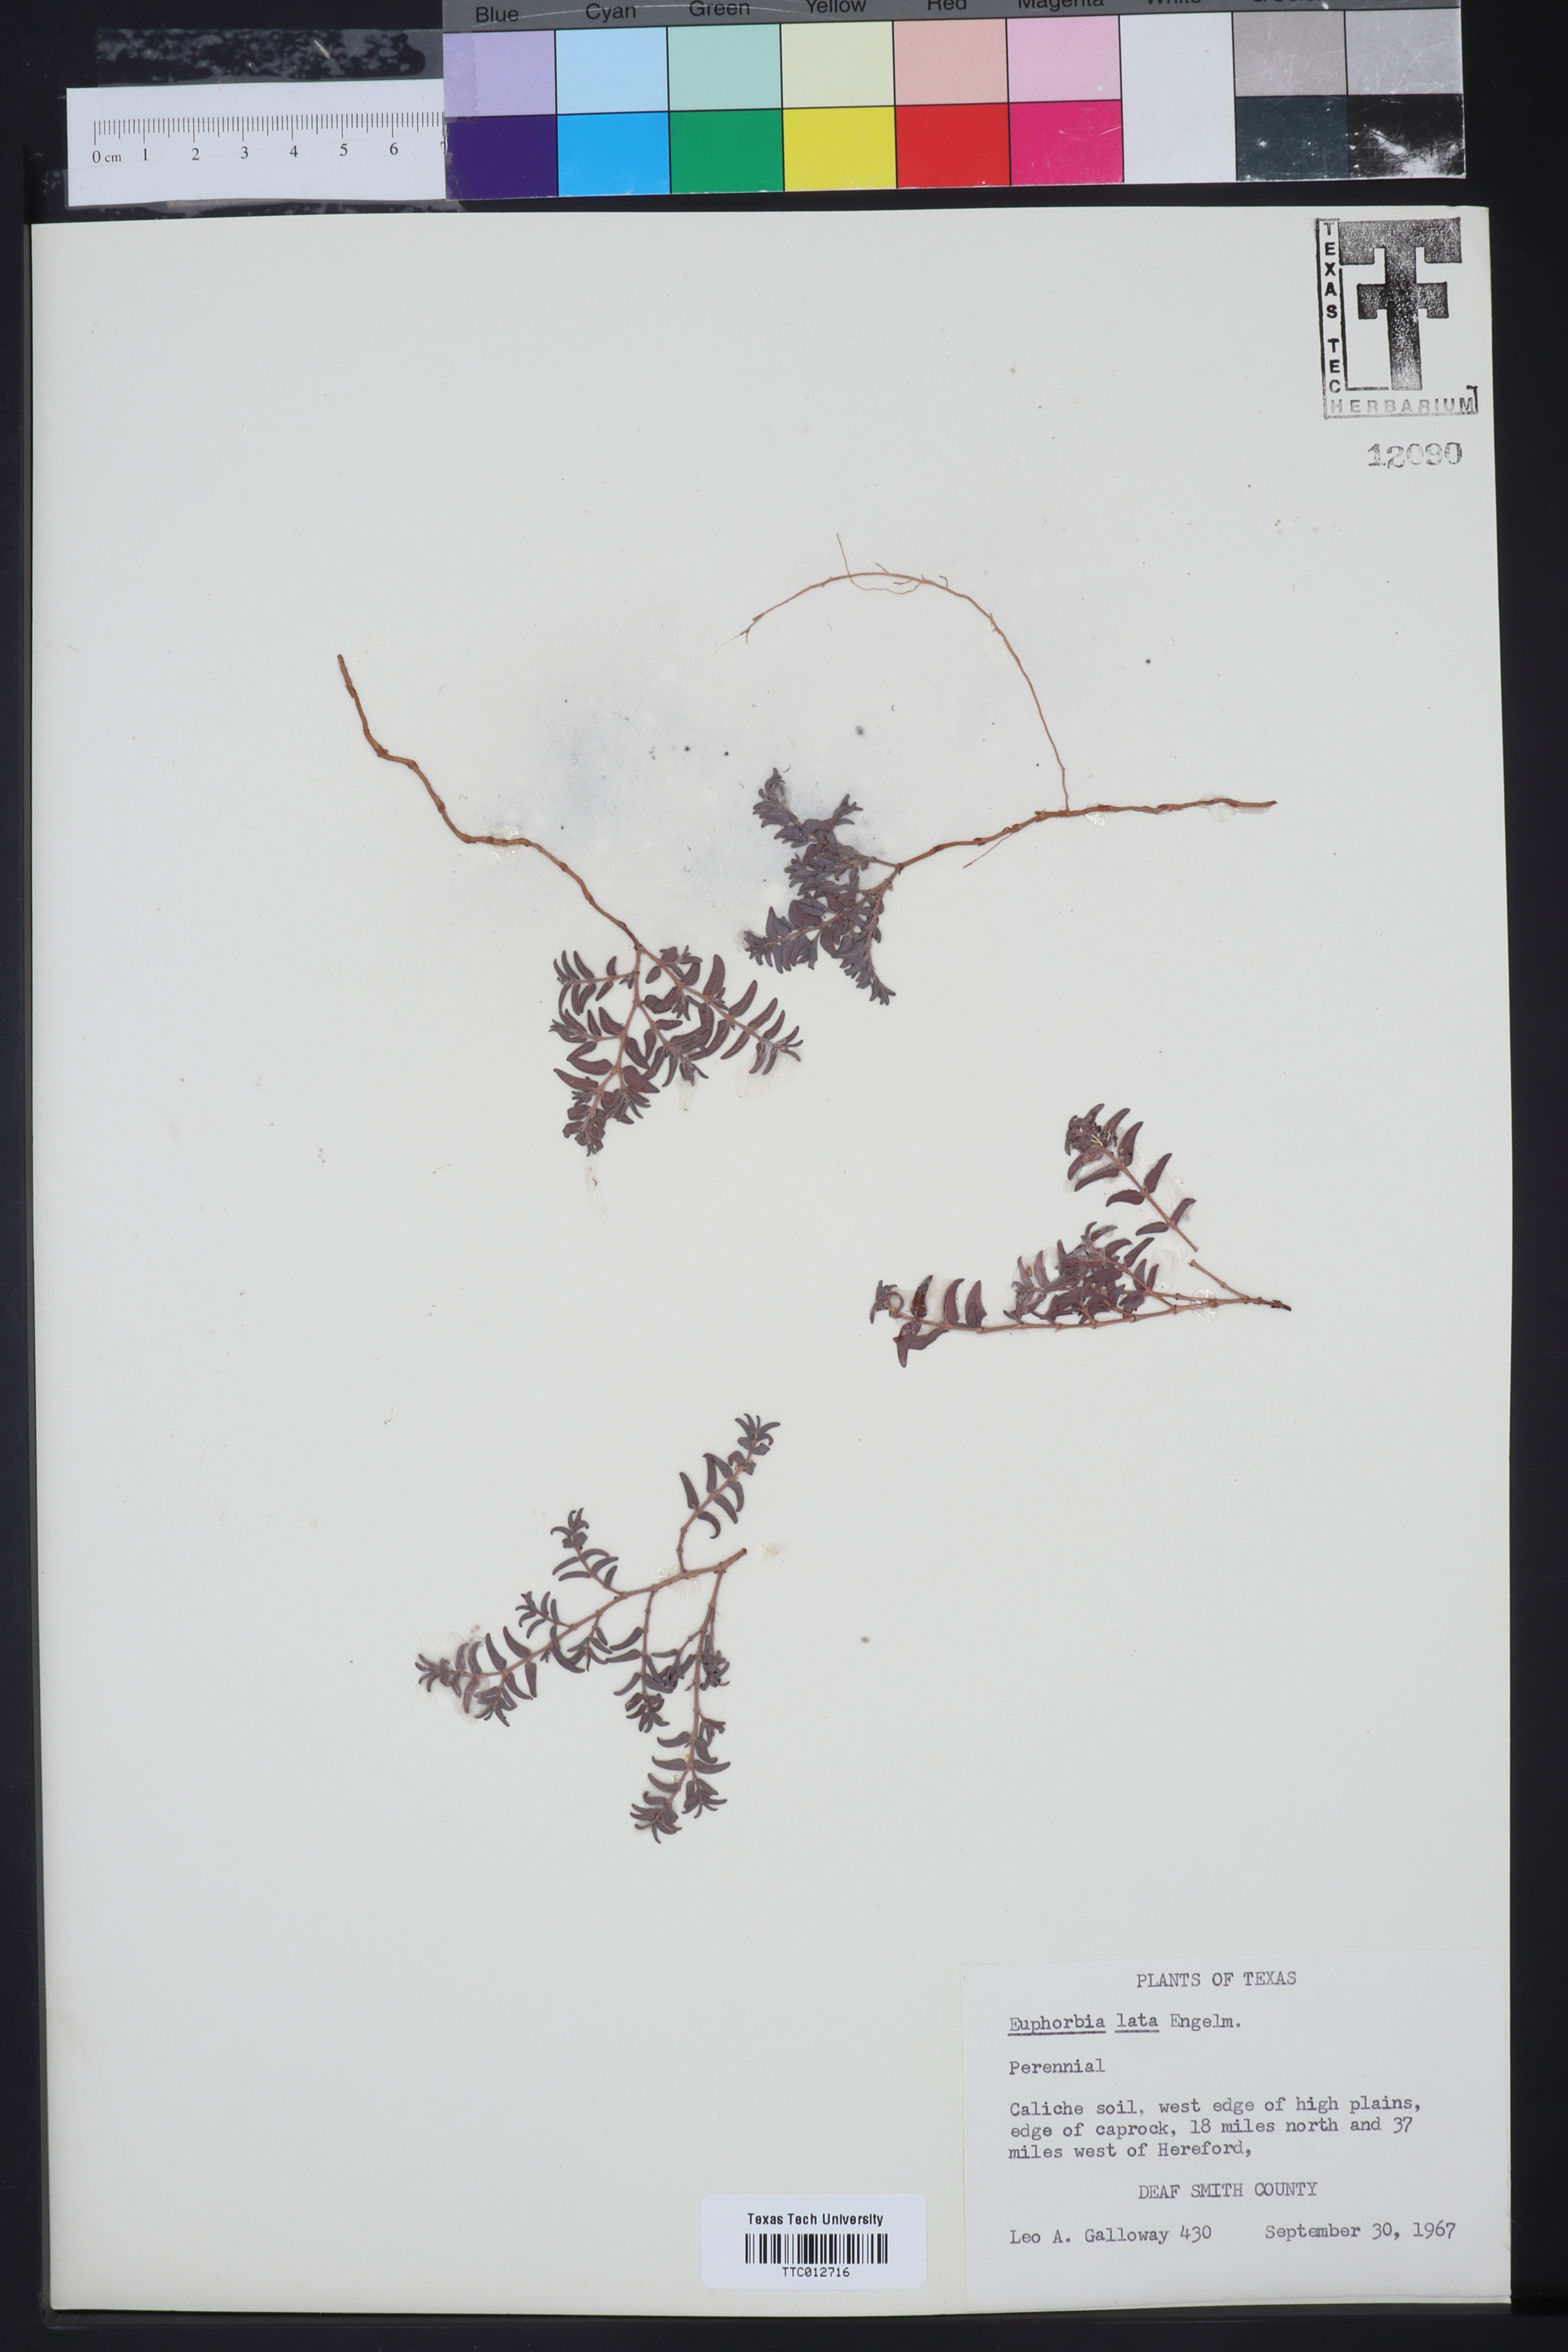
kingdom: Plantae
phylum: Tracheophyta
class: Magnoliopsida
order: Malpighiales
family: Euphorbiaceae
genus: Euphorbia
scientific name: Euphorbia lata
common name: Hoary euphorbia
